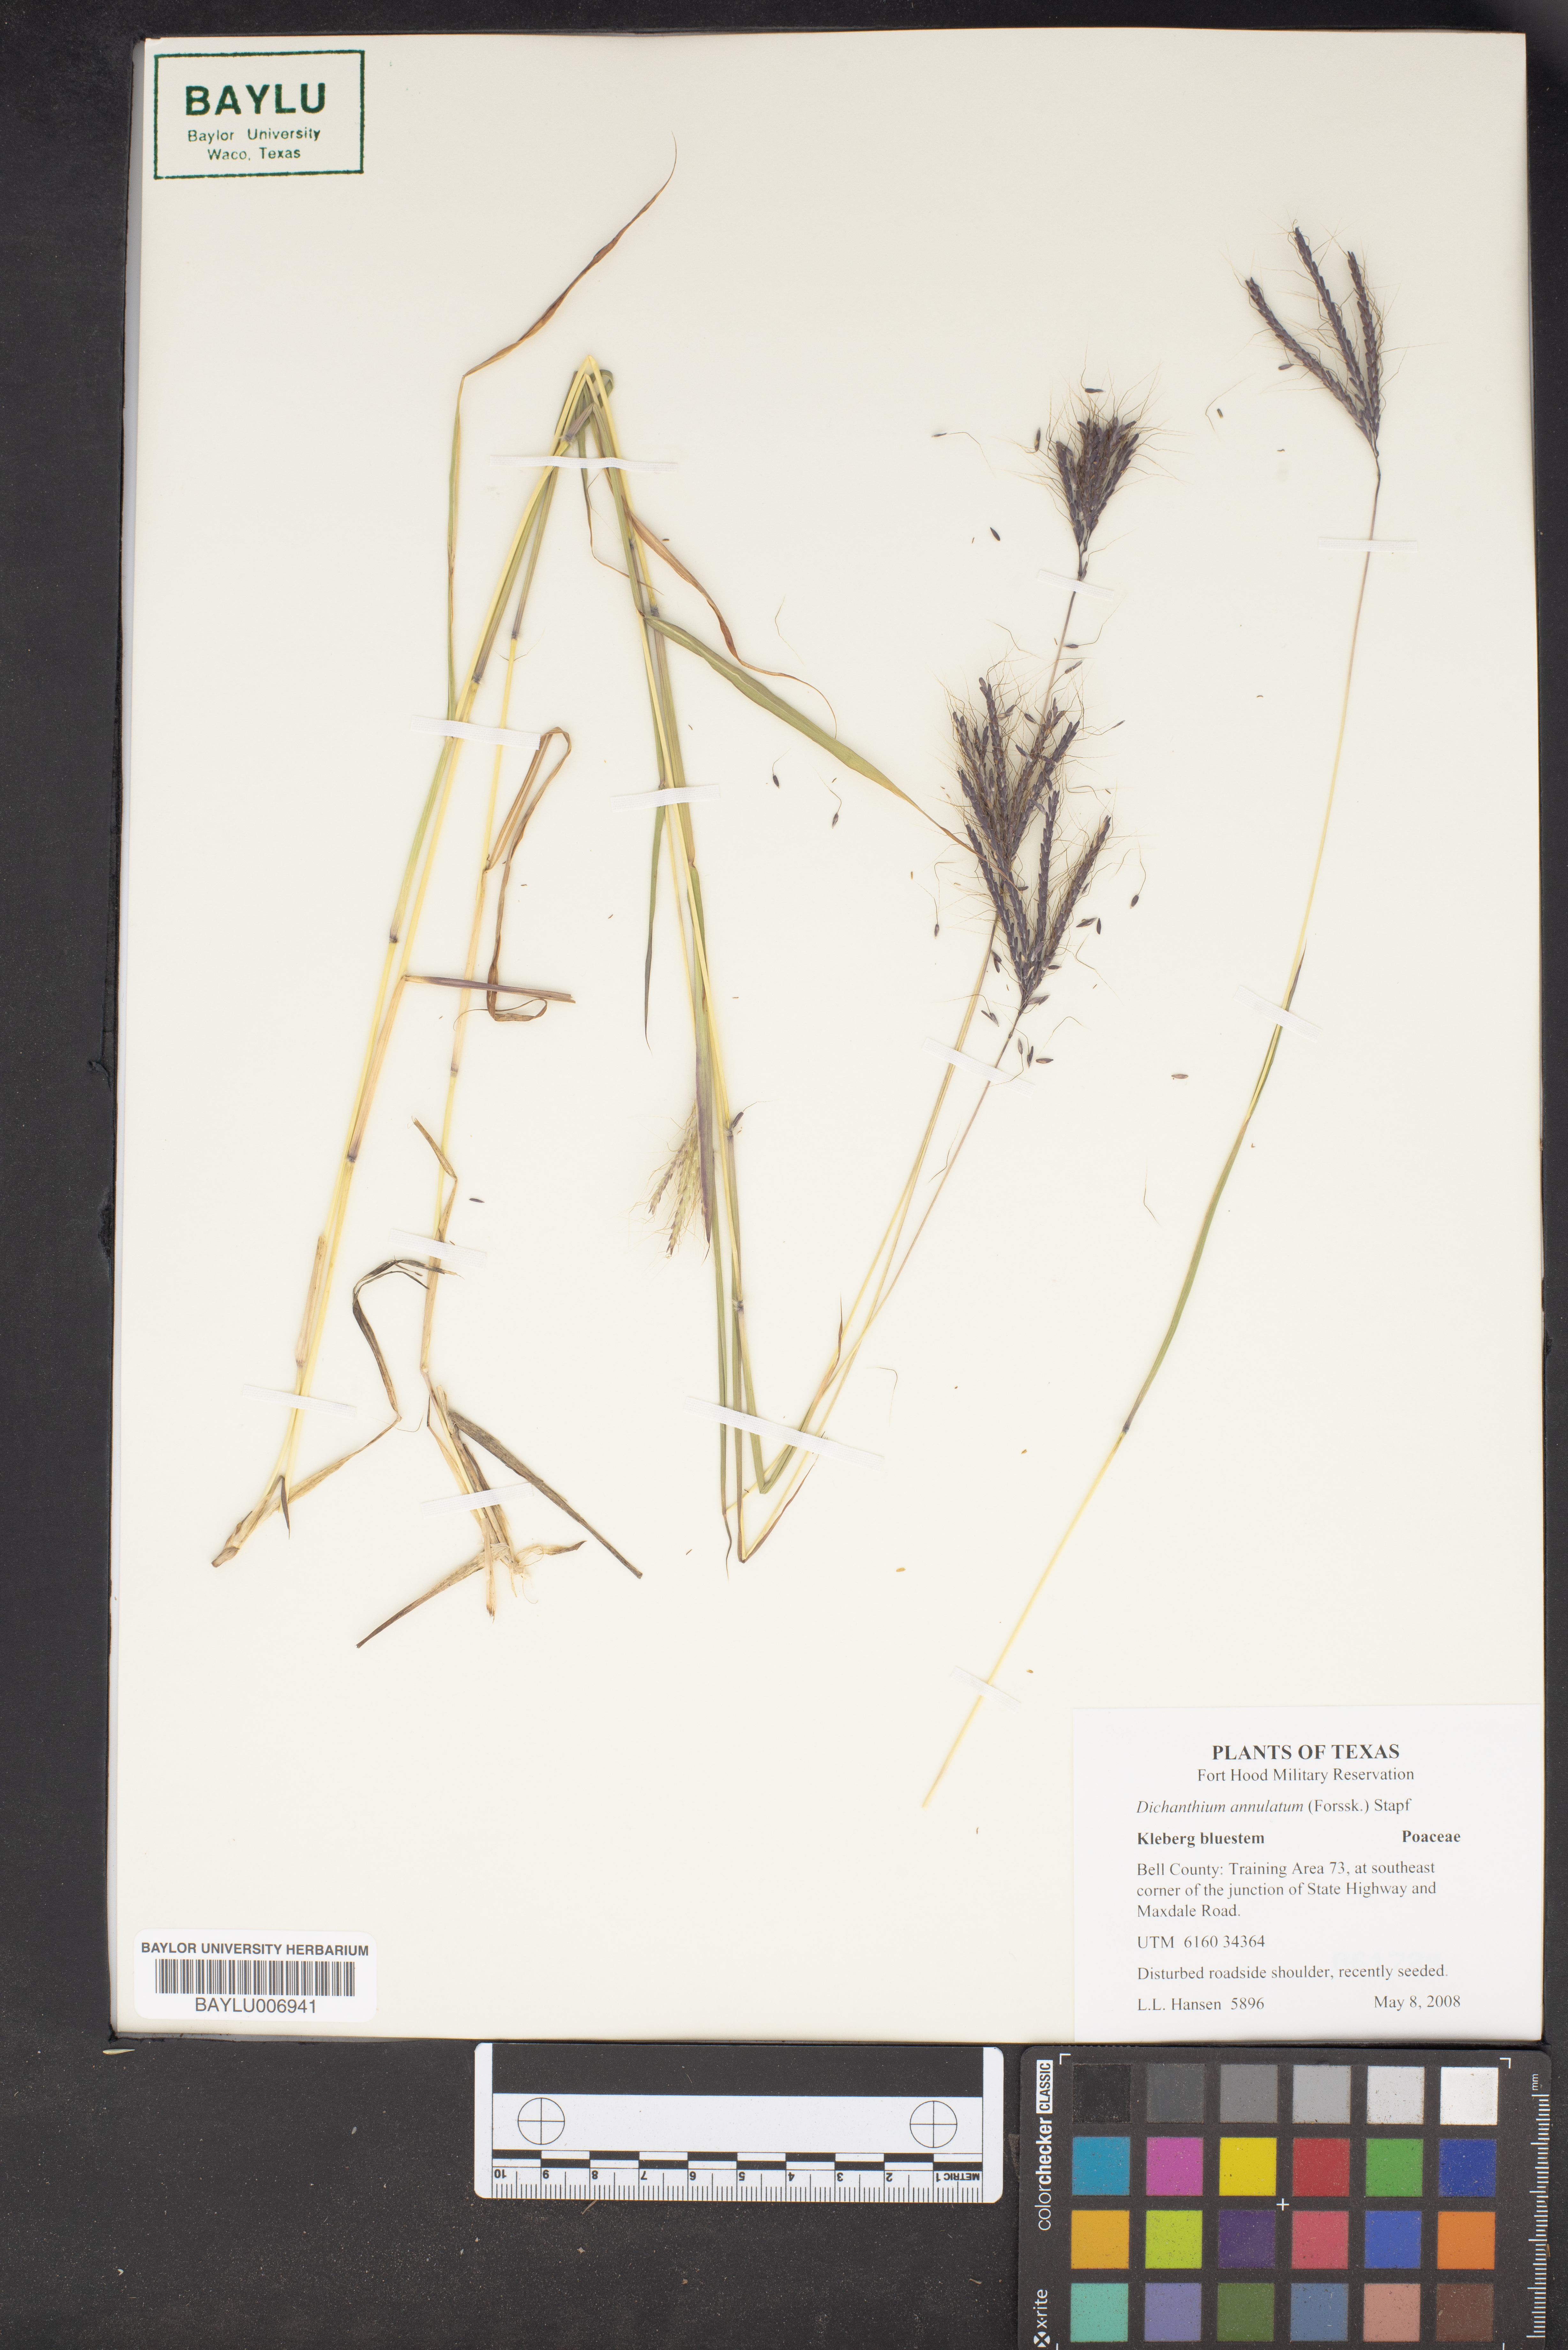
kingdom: Plantae
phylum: Tracheophyta
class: Liliopsida
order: Poales
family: Poaceae
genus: Dichanthium
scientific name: Dichanthium annulatum
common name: Kleberg's bluestem
